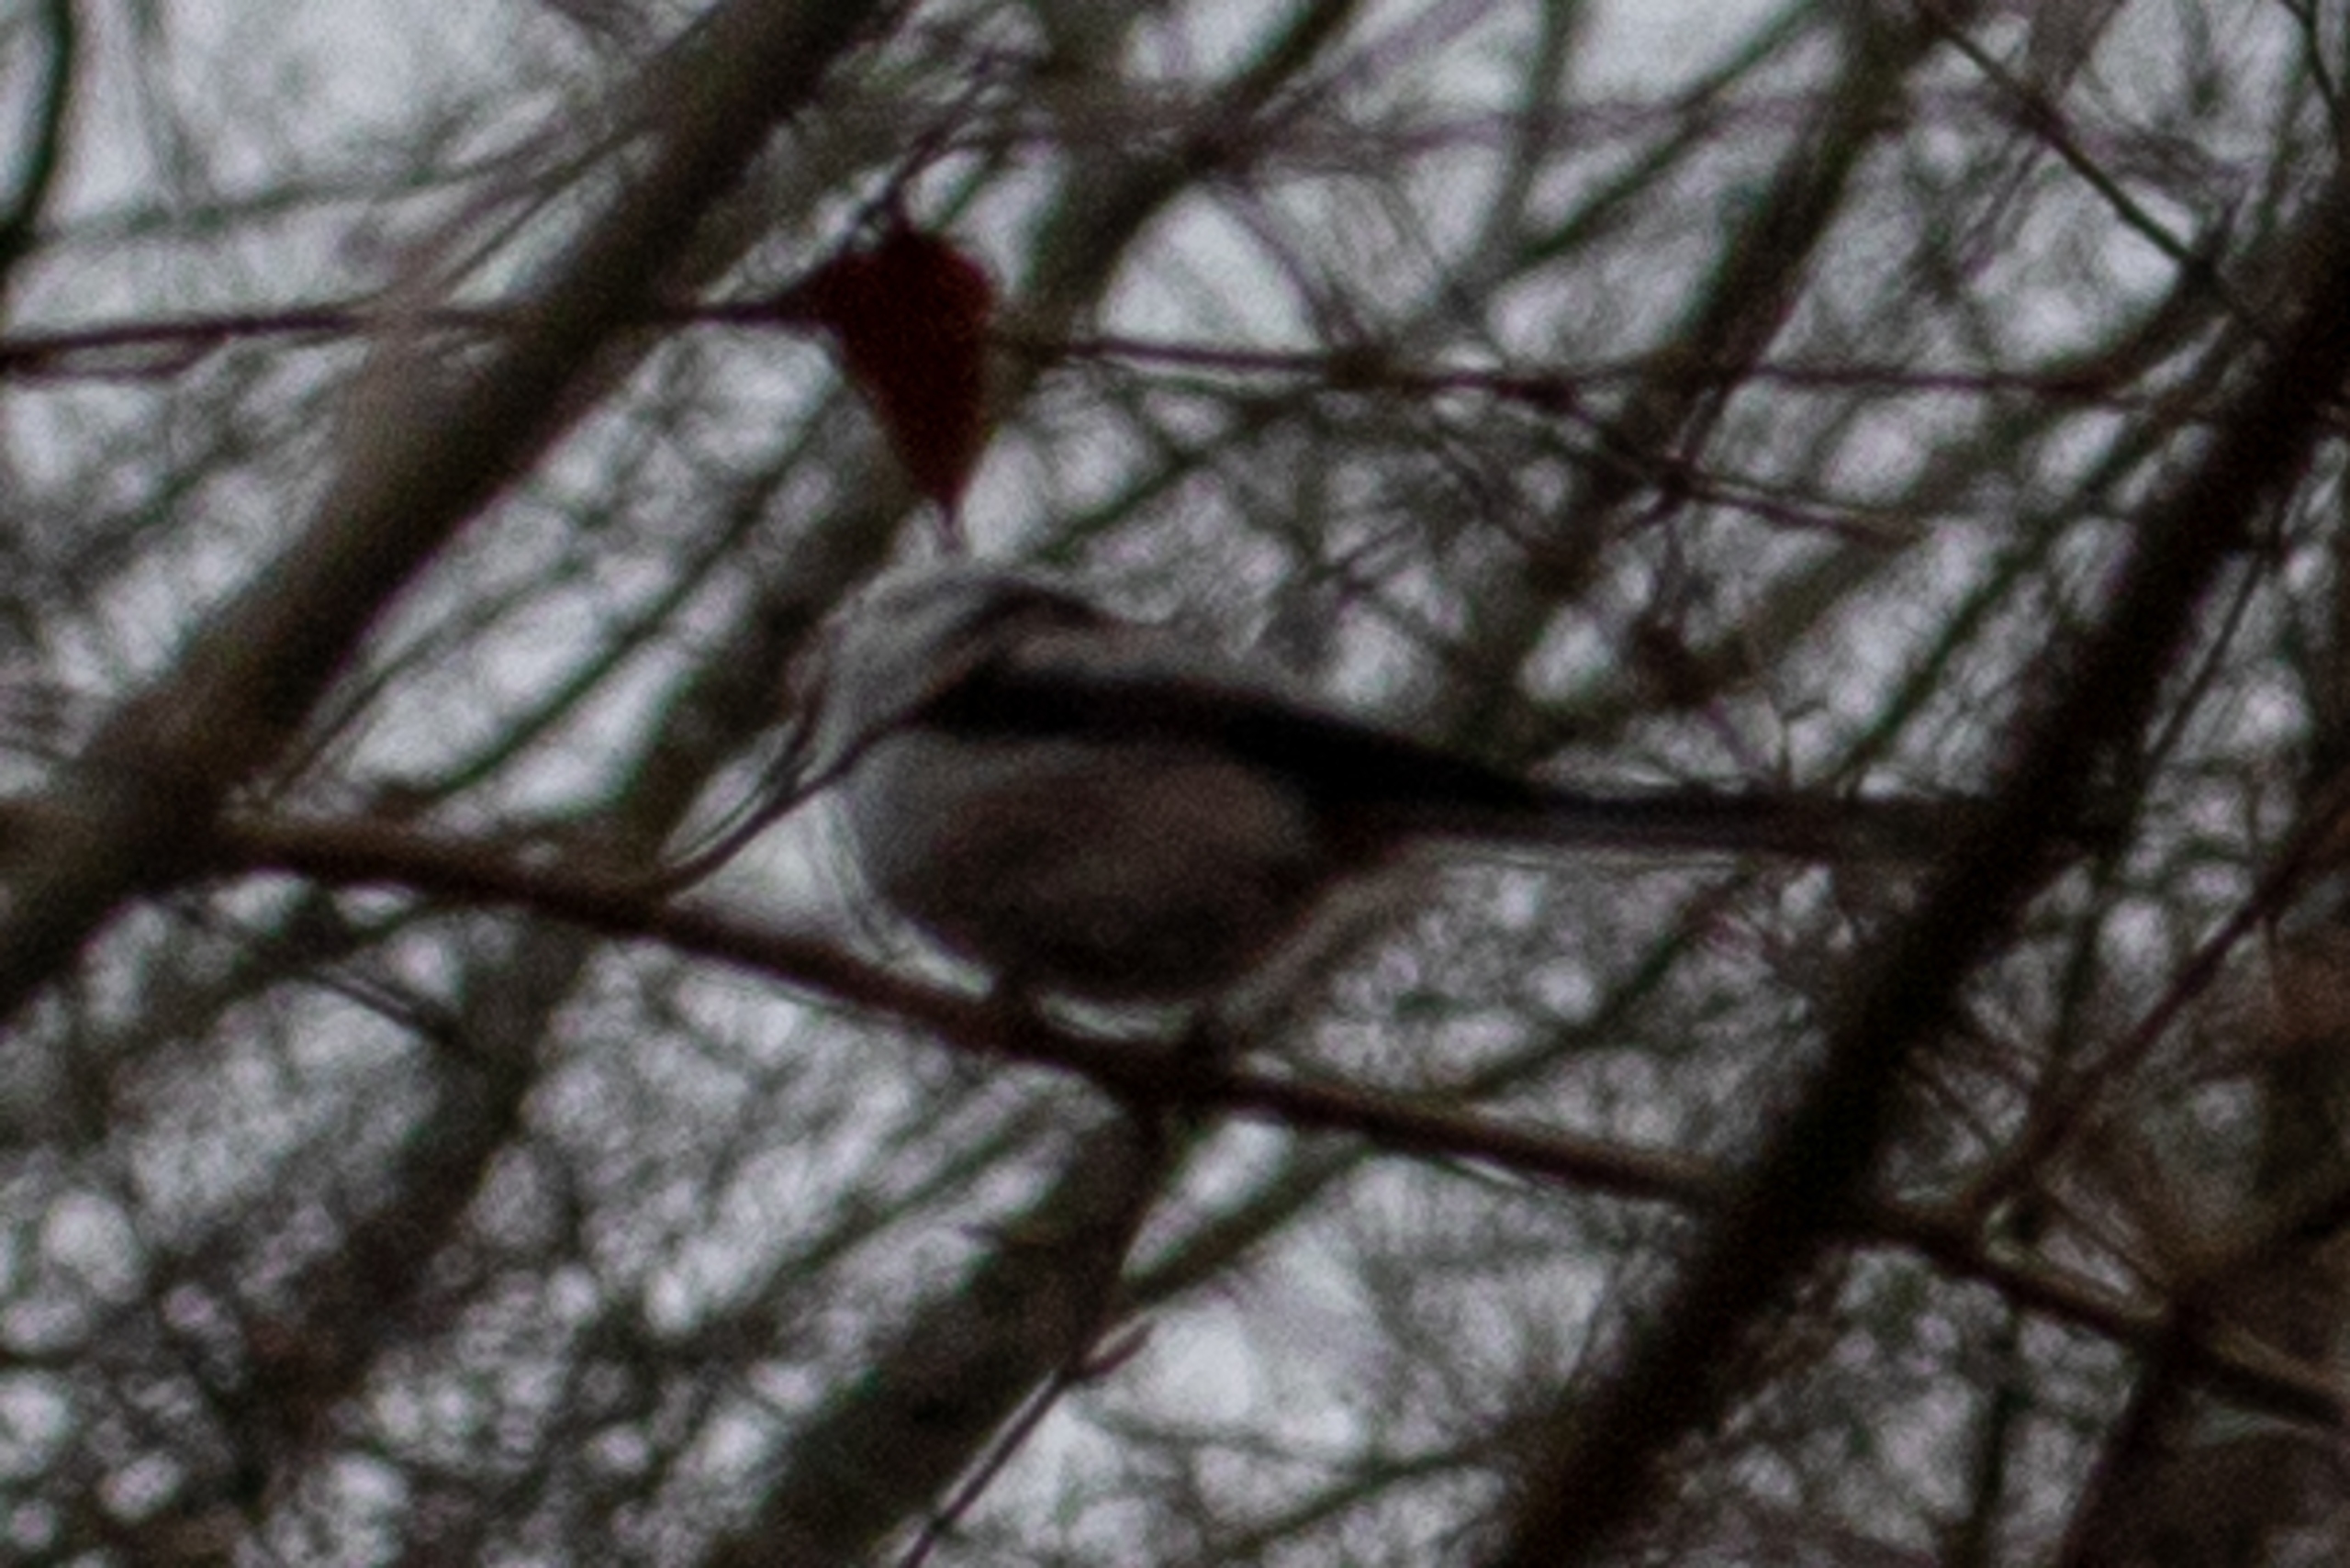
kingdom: Animalia
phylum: Chordata
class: Aves
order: Passeriformes
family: Aegithalidae
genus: Aegithalos
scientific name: Aegithalos caudatus
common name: Halemejse
